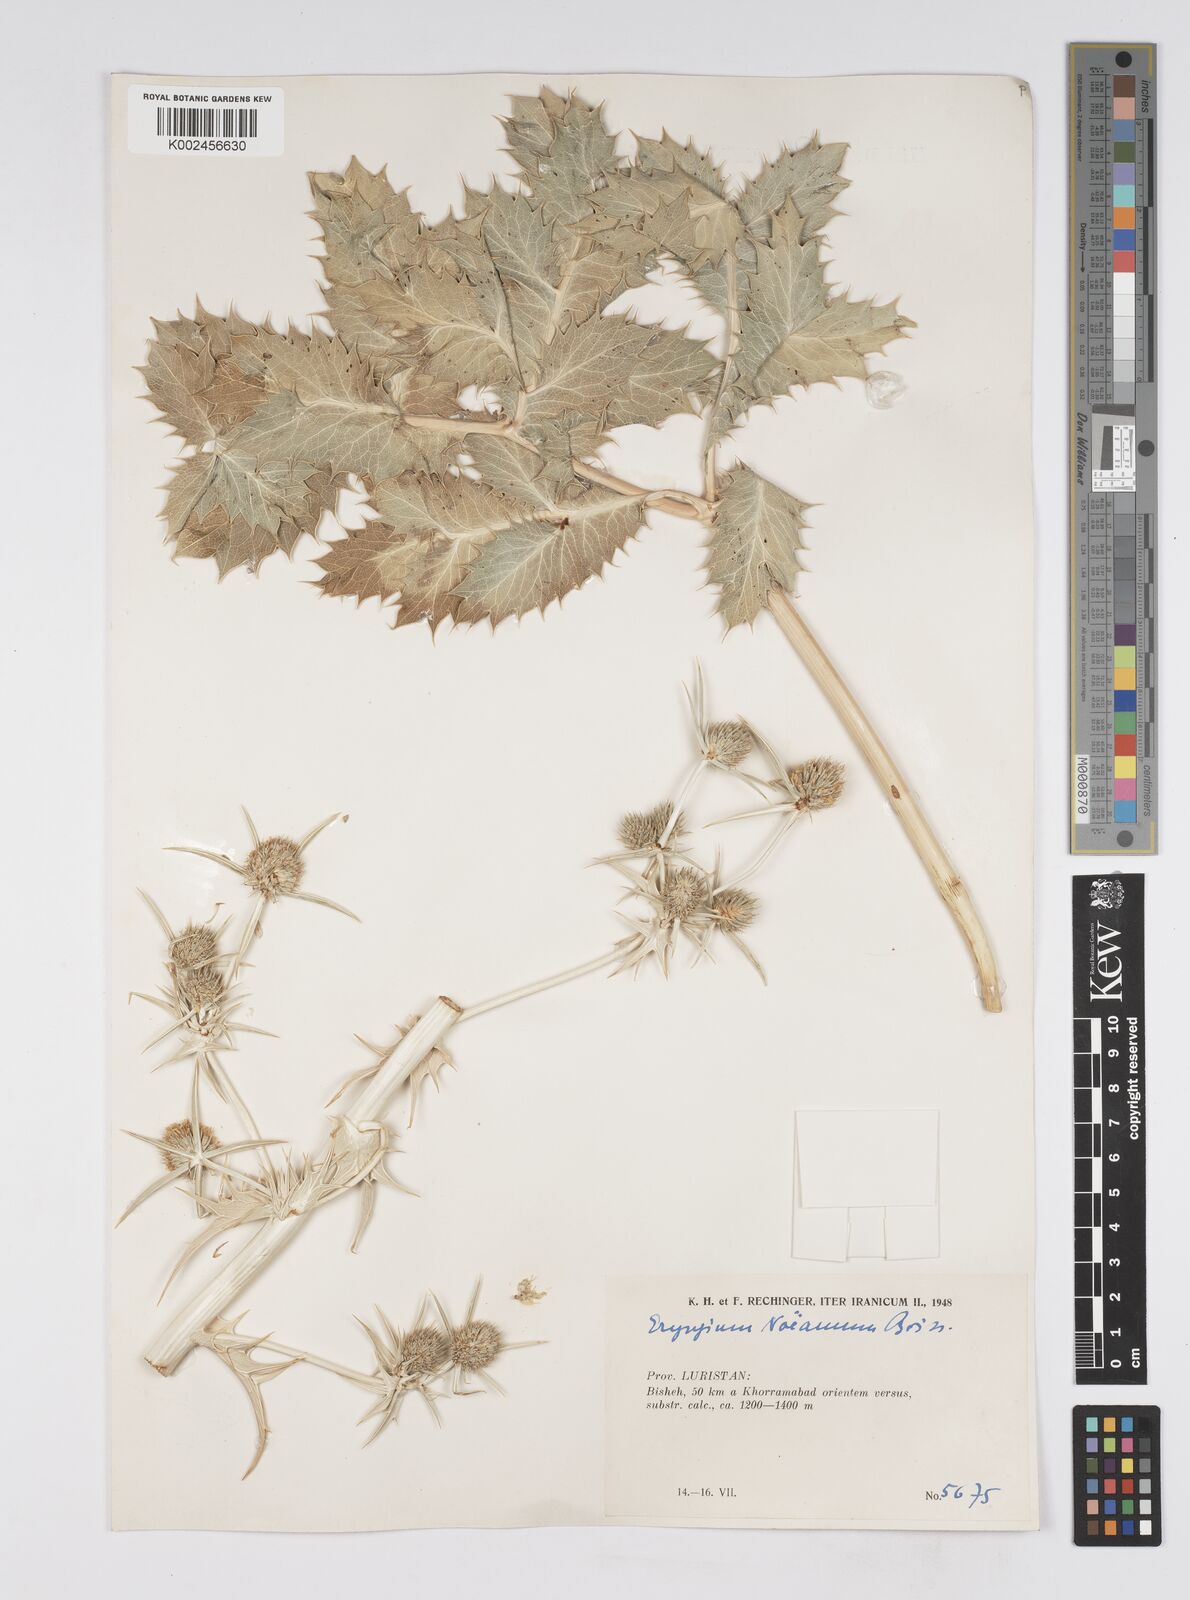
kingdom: Plantae
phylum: Tracheophyta
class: Magnoliopsida
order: Apiales
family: Apiaceae
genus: Eryngium
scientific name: Eryngium billardierei
